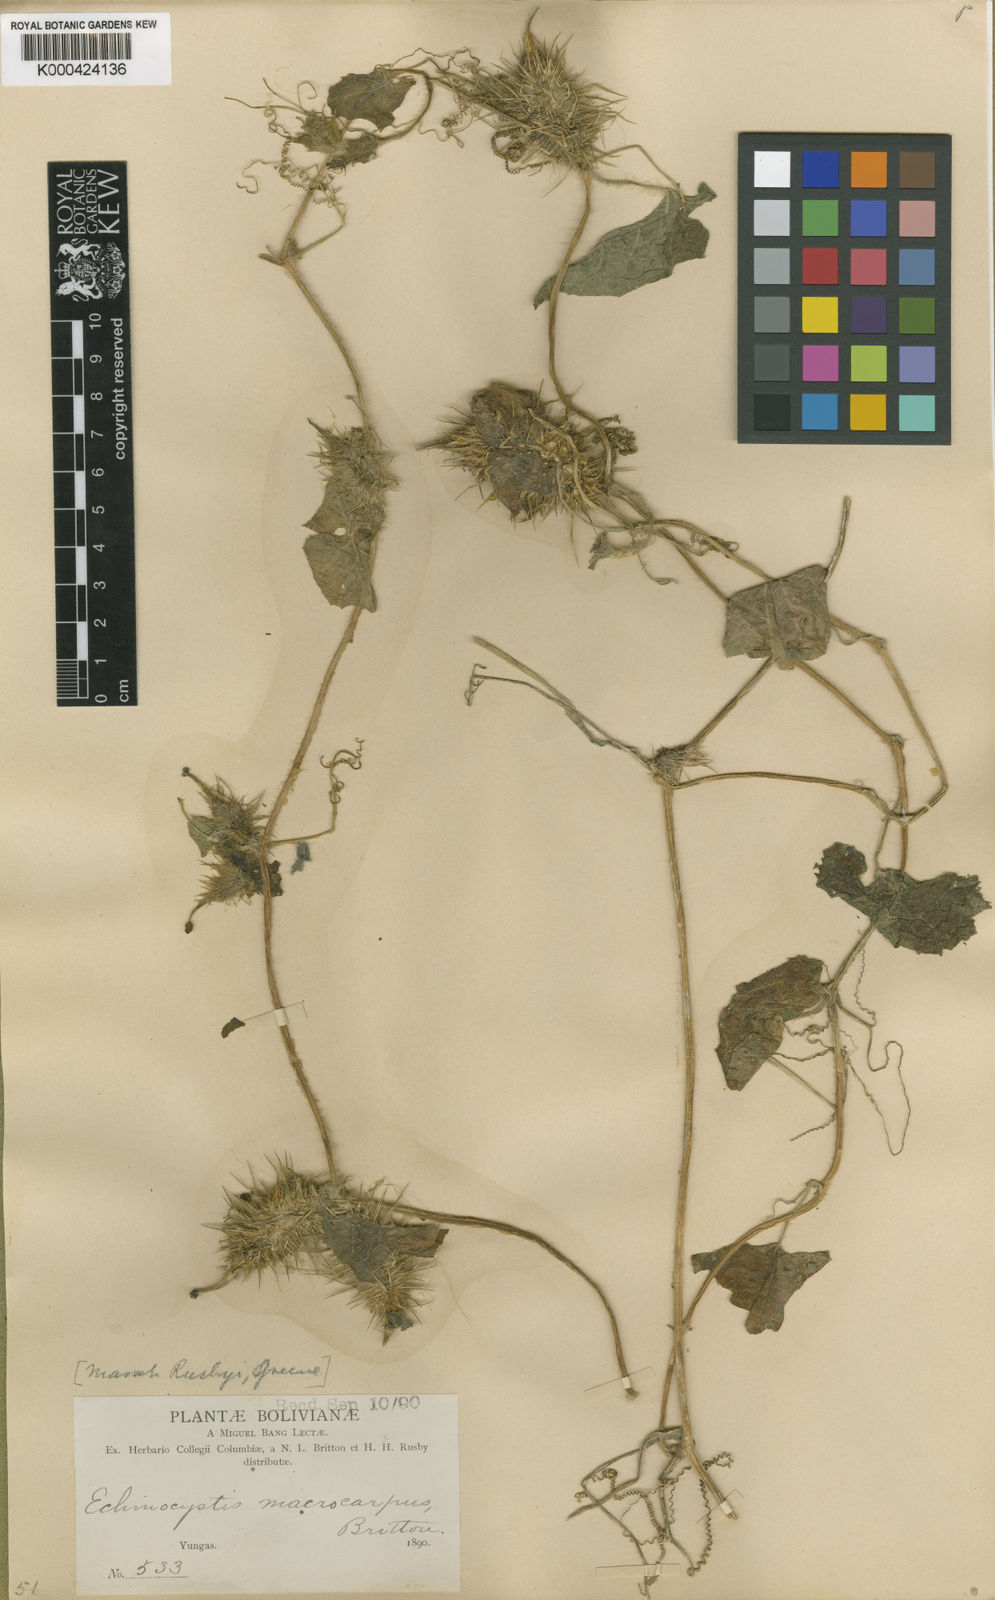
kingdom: Plantae
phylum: Tracheophyta
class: Magnoliopsida
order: Cucurbitales
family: Cucurbitaceae
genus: Echinopepon
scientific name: Echinopepon racemosus
